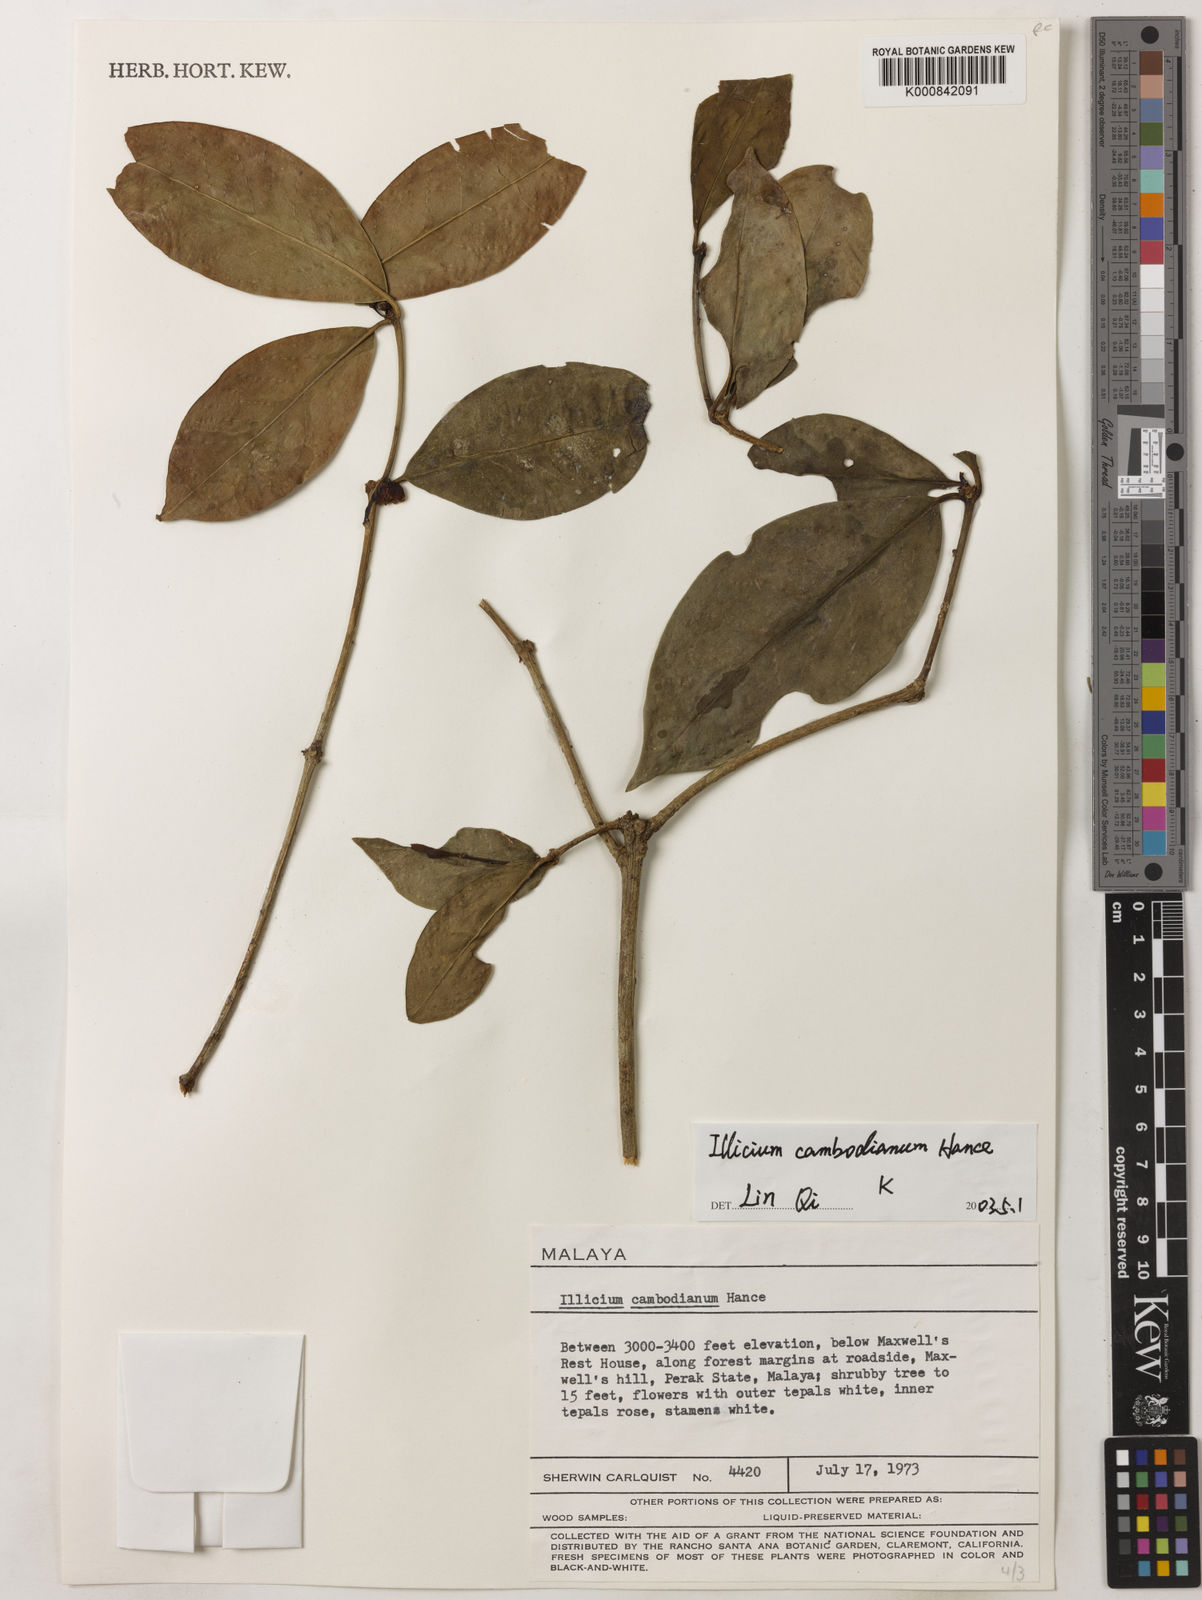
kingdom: Plantae
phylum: Tracheophyta
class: Magnoliopsida
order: Austrobaileyales
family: Schisandraceae
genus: Illicium
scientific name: Illicium griffithii
